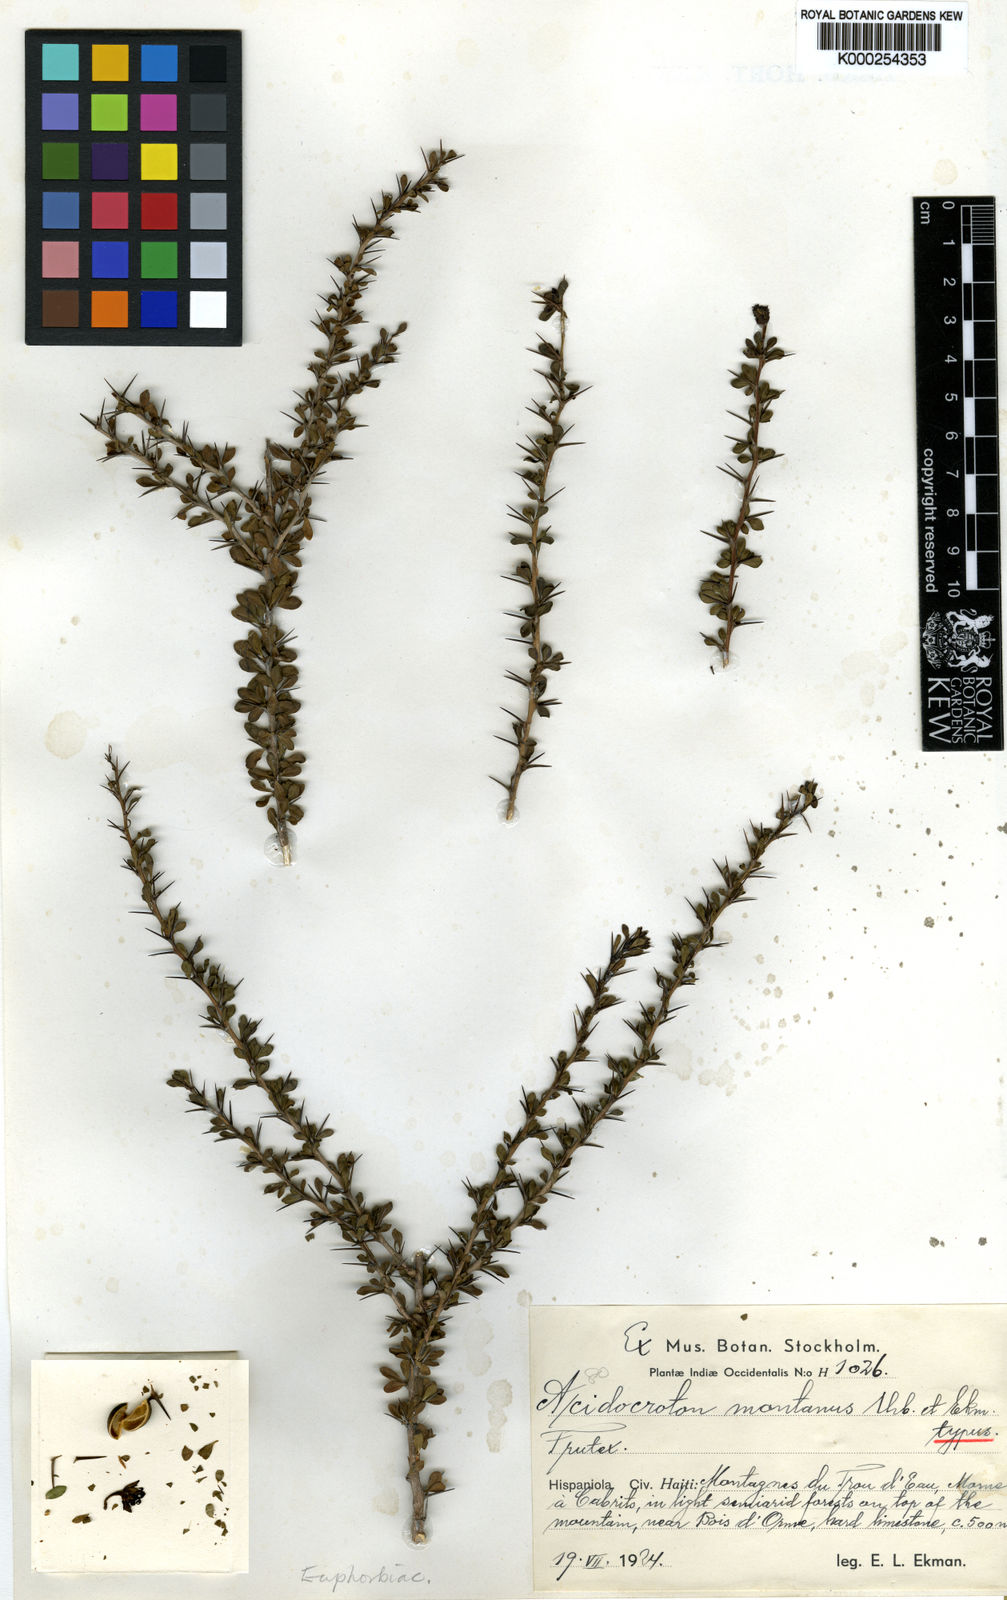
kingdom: Plantae
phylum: Tracheophyta
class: Magnoliopsida
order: Malpighiales
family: Euphorbiaceae
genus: Acidocroton
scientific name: Acidocroton montanus
